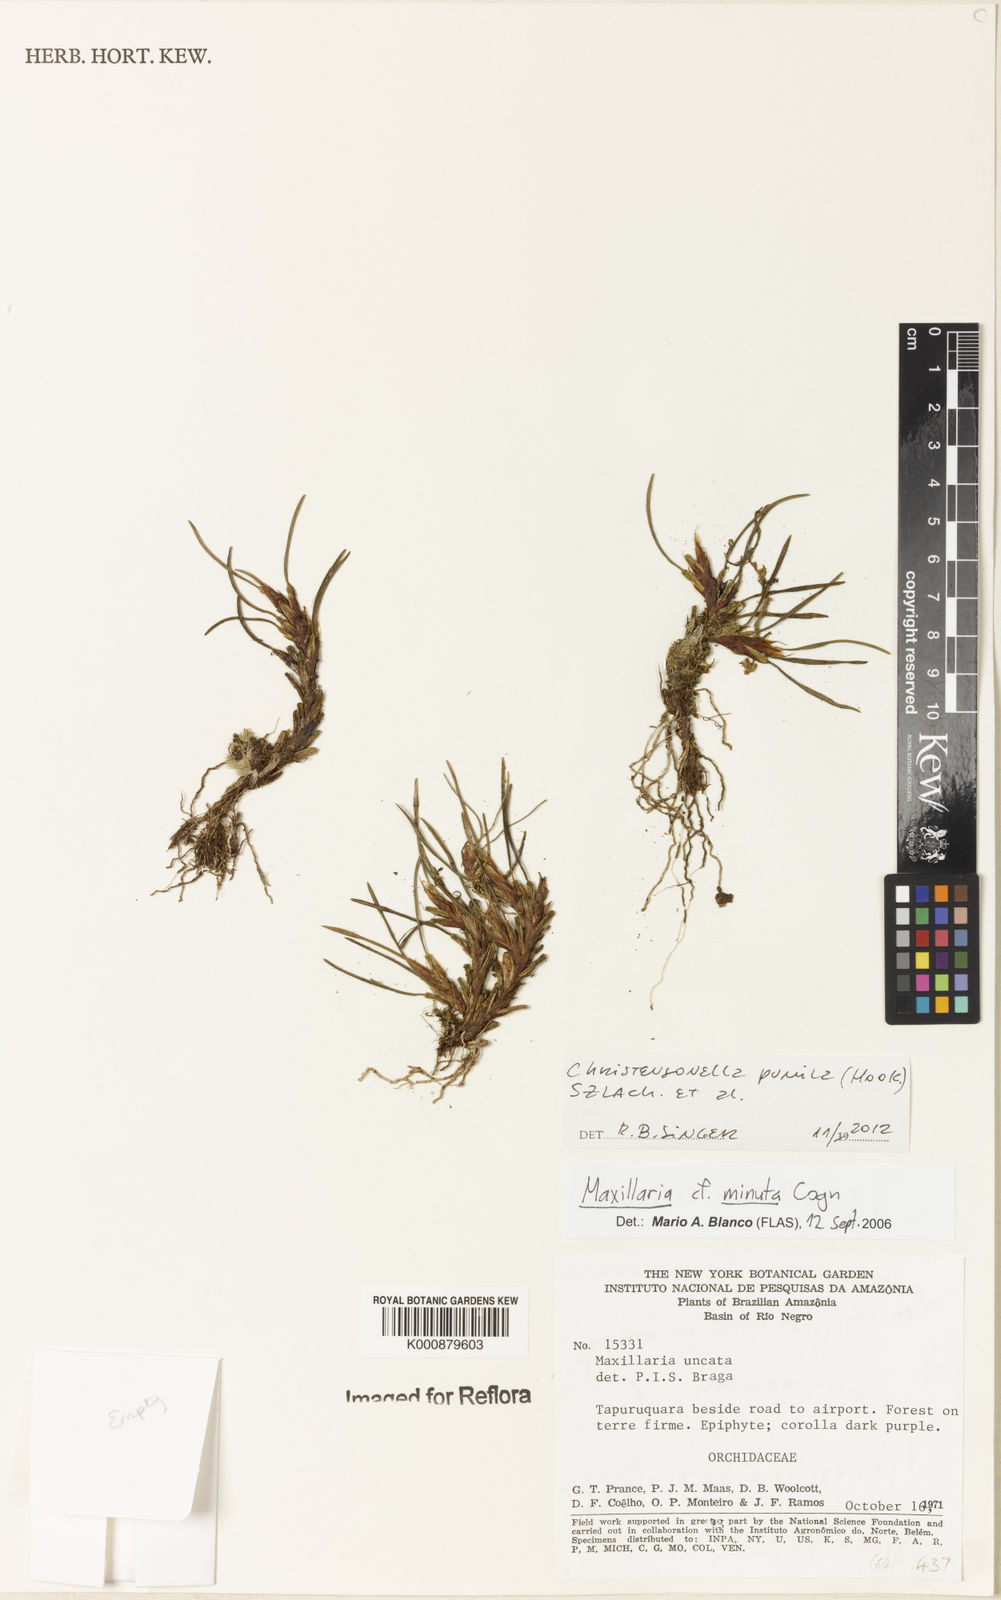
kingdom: Plantae
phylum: Tracheophyta
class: Liliopsida
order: Asparagales
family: Orchidaceae
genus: Maxillaria
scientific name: Maxillaria pumila
